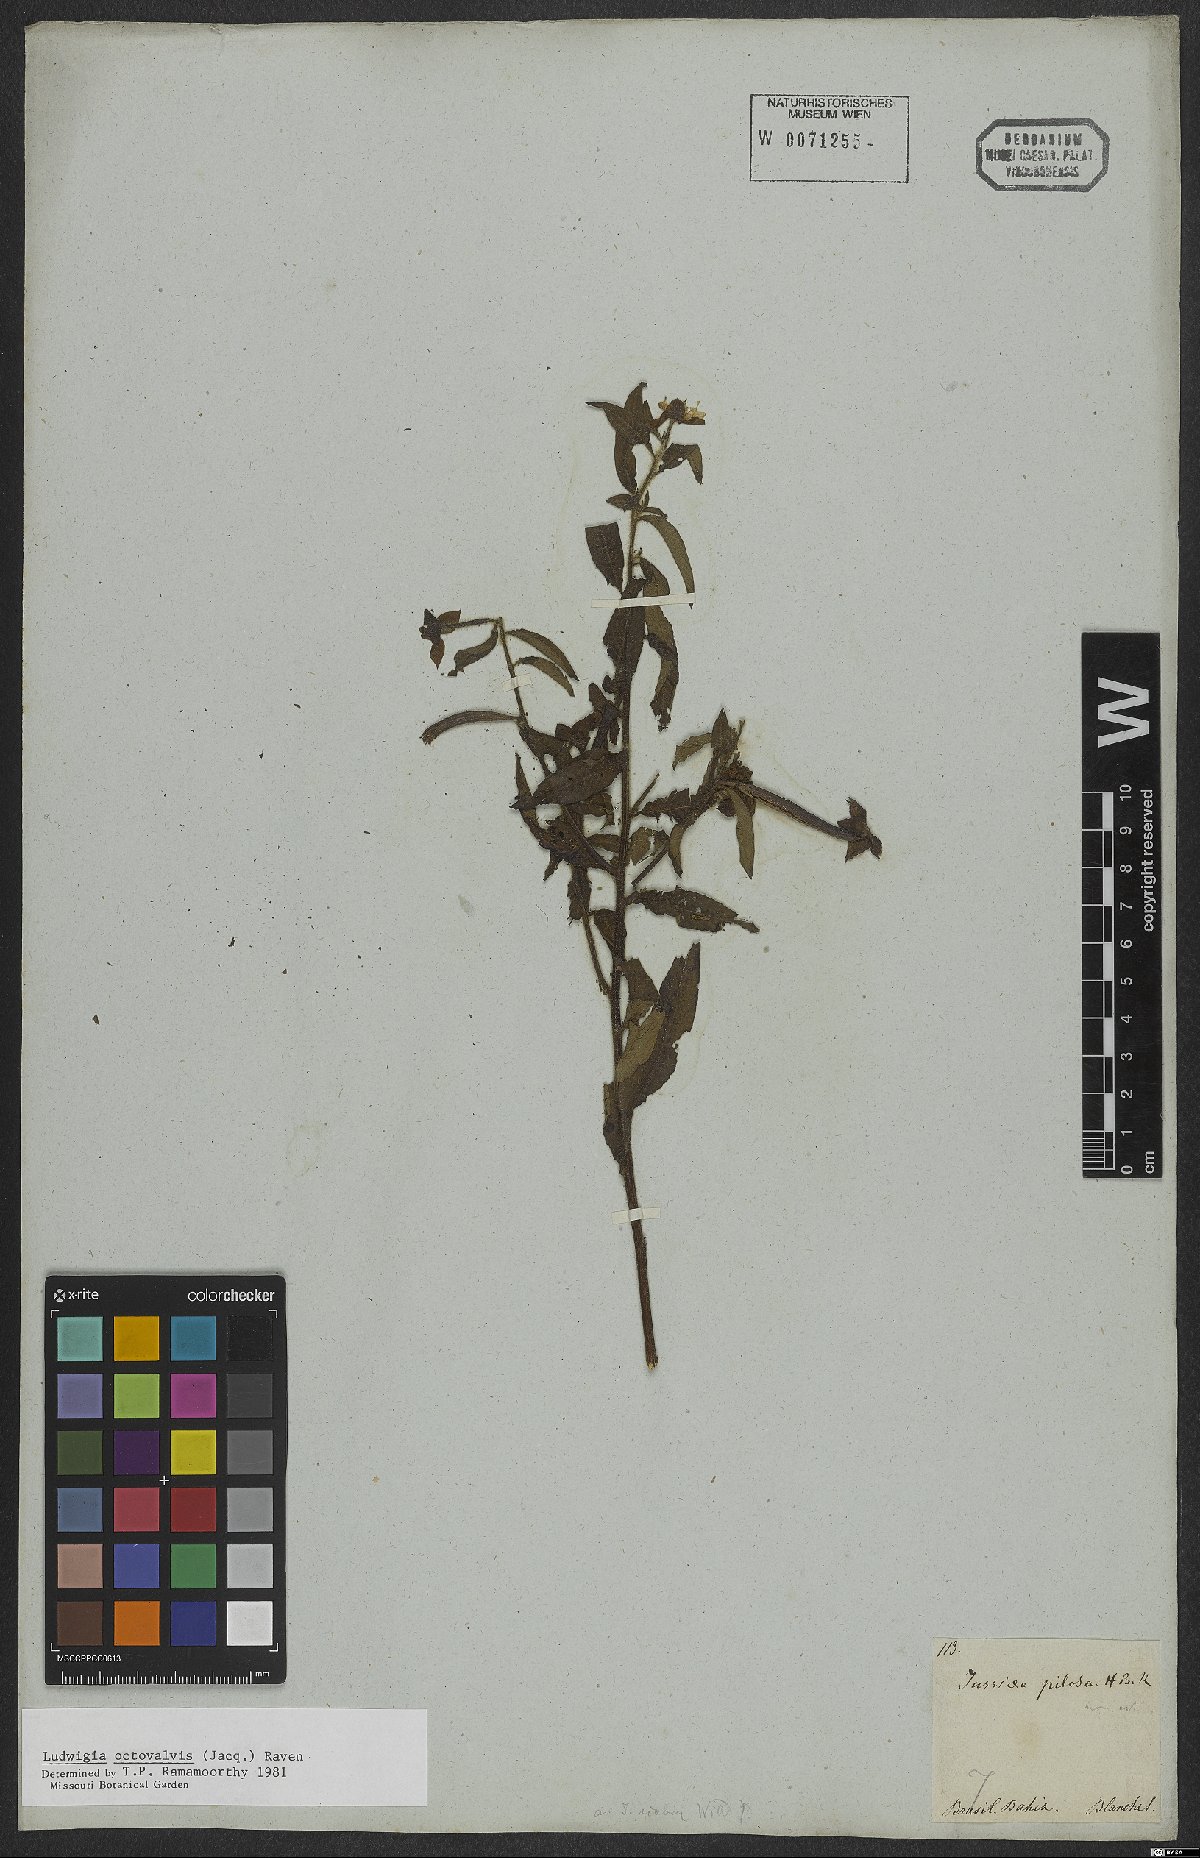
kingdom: Plantae
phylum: Tracheophyta
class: Magnoliopsida
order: Myrtales
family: Onagraceae
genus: Ludwigia
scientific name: Ludwigia octovalvis
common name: Water-primrose
